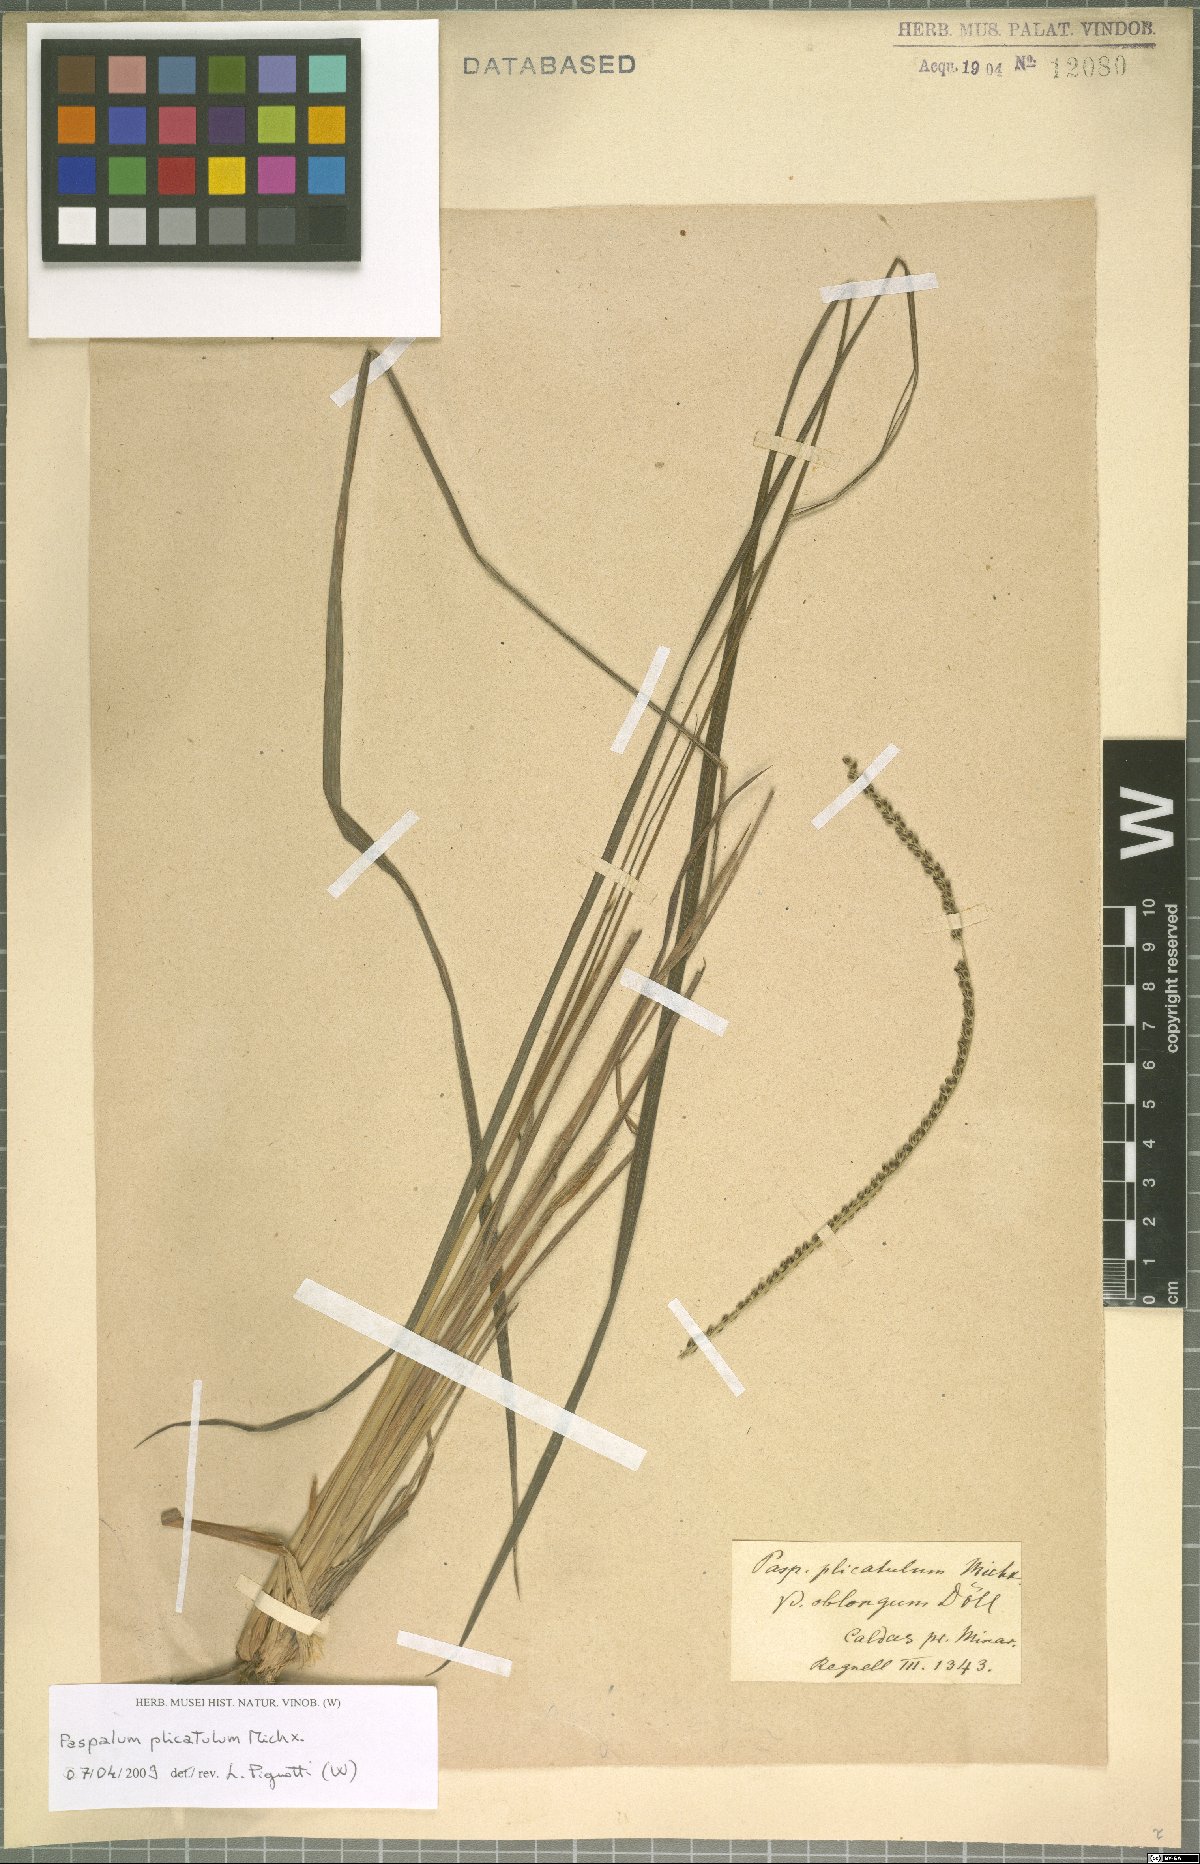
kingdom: Plantae
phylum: Tracheophyta
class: Liliopsida
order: Poales
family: Poaceae
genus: Paspalum
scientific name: Paspalum glaucescens
